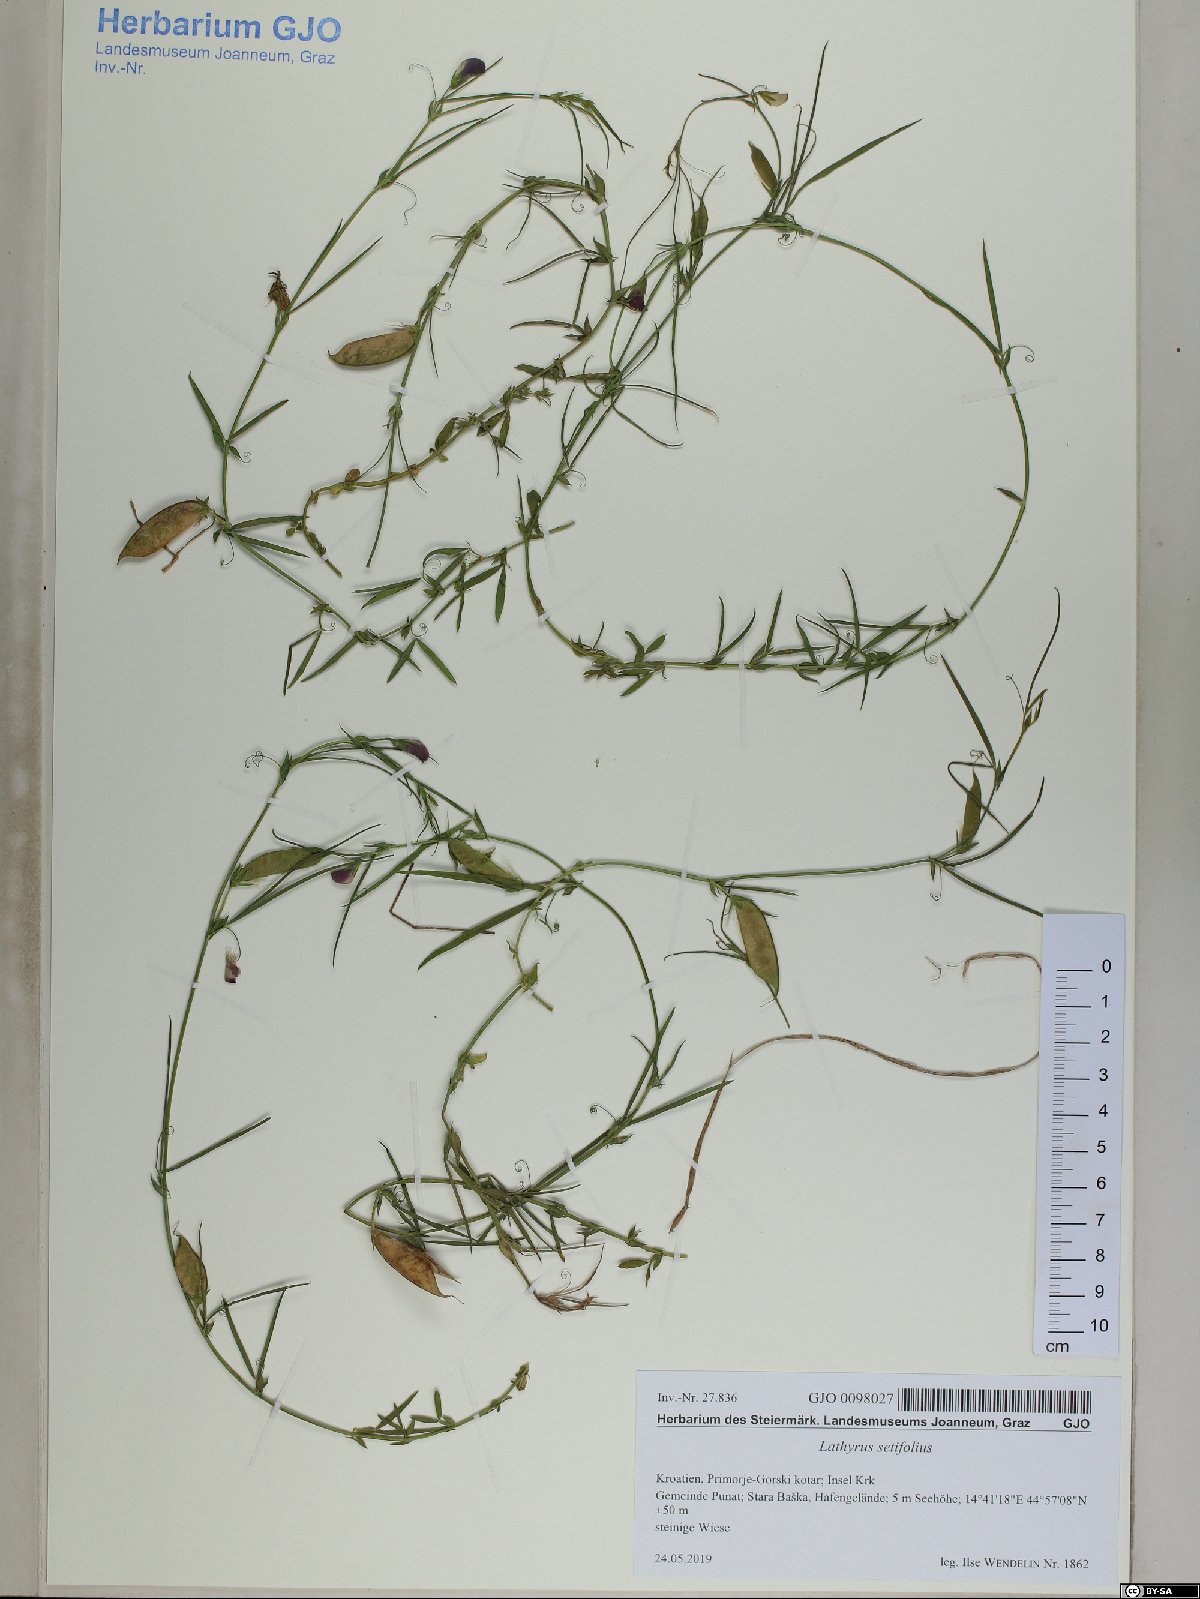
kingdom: Plantae
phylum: Tracheophyta
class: Magnoliopsida
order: Fabales
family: Fabaceae
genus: Lathyrus
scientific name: Lathyrus setifolius
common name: Brown vetchling
